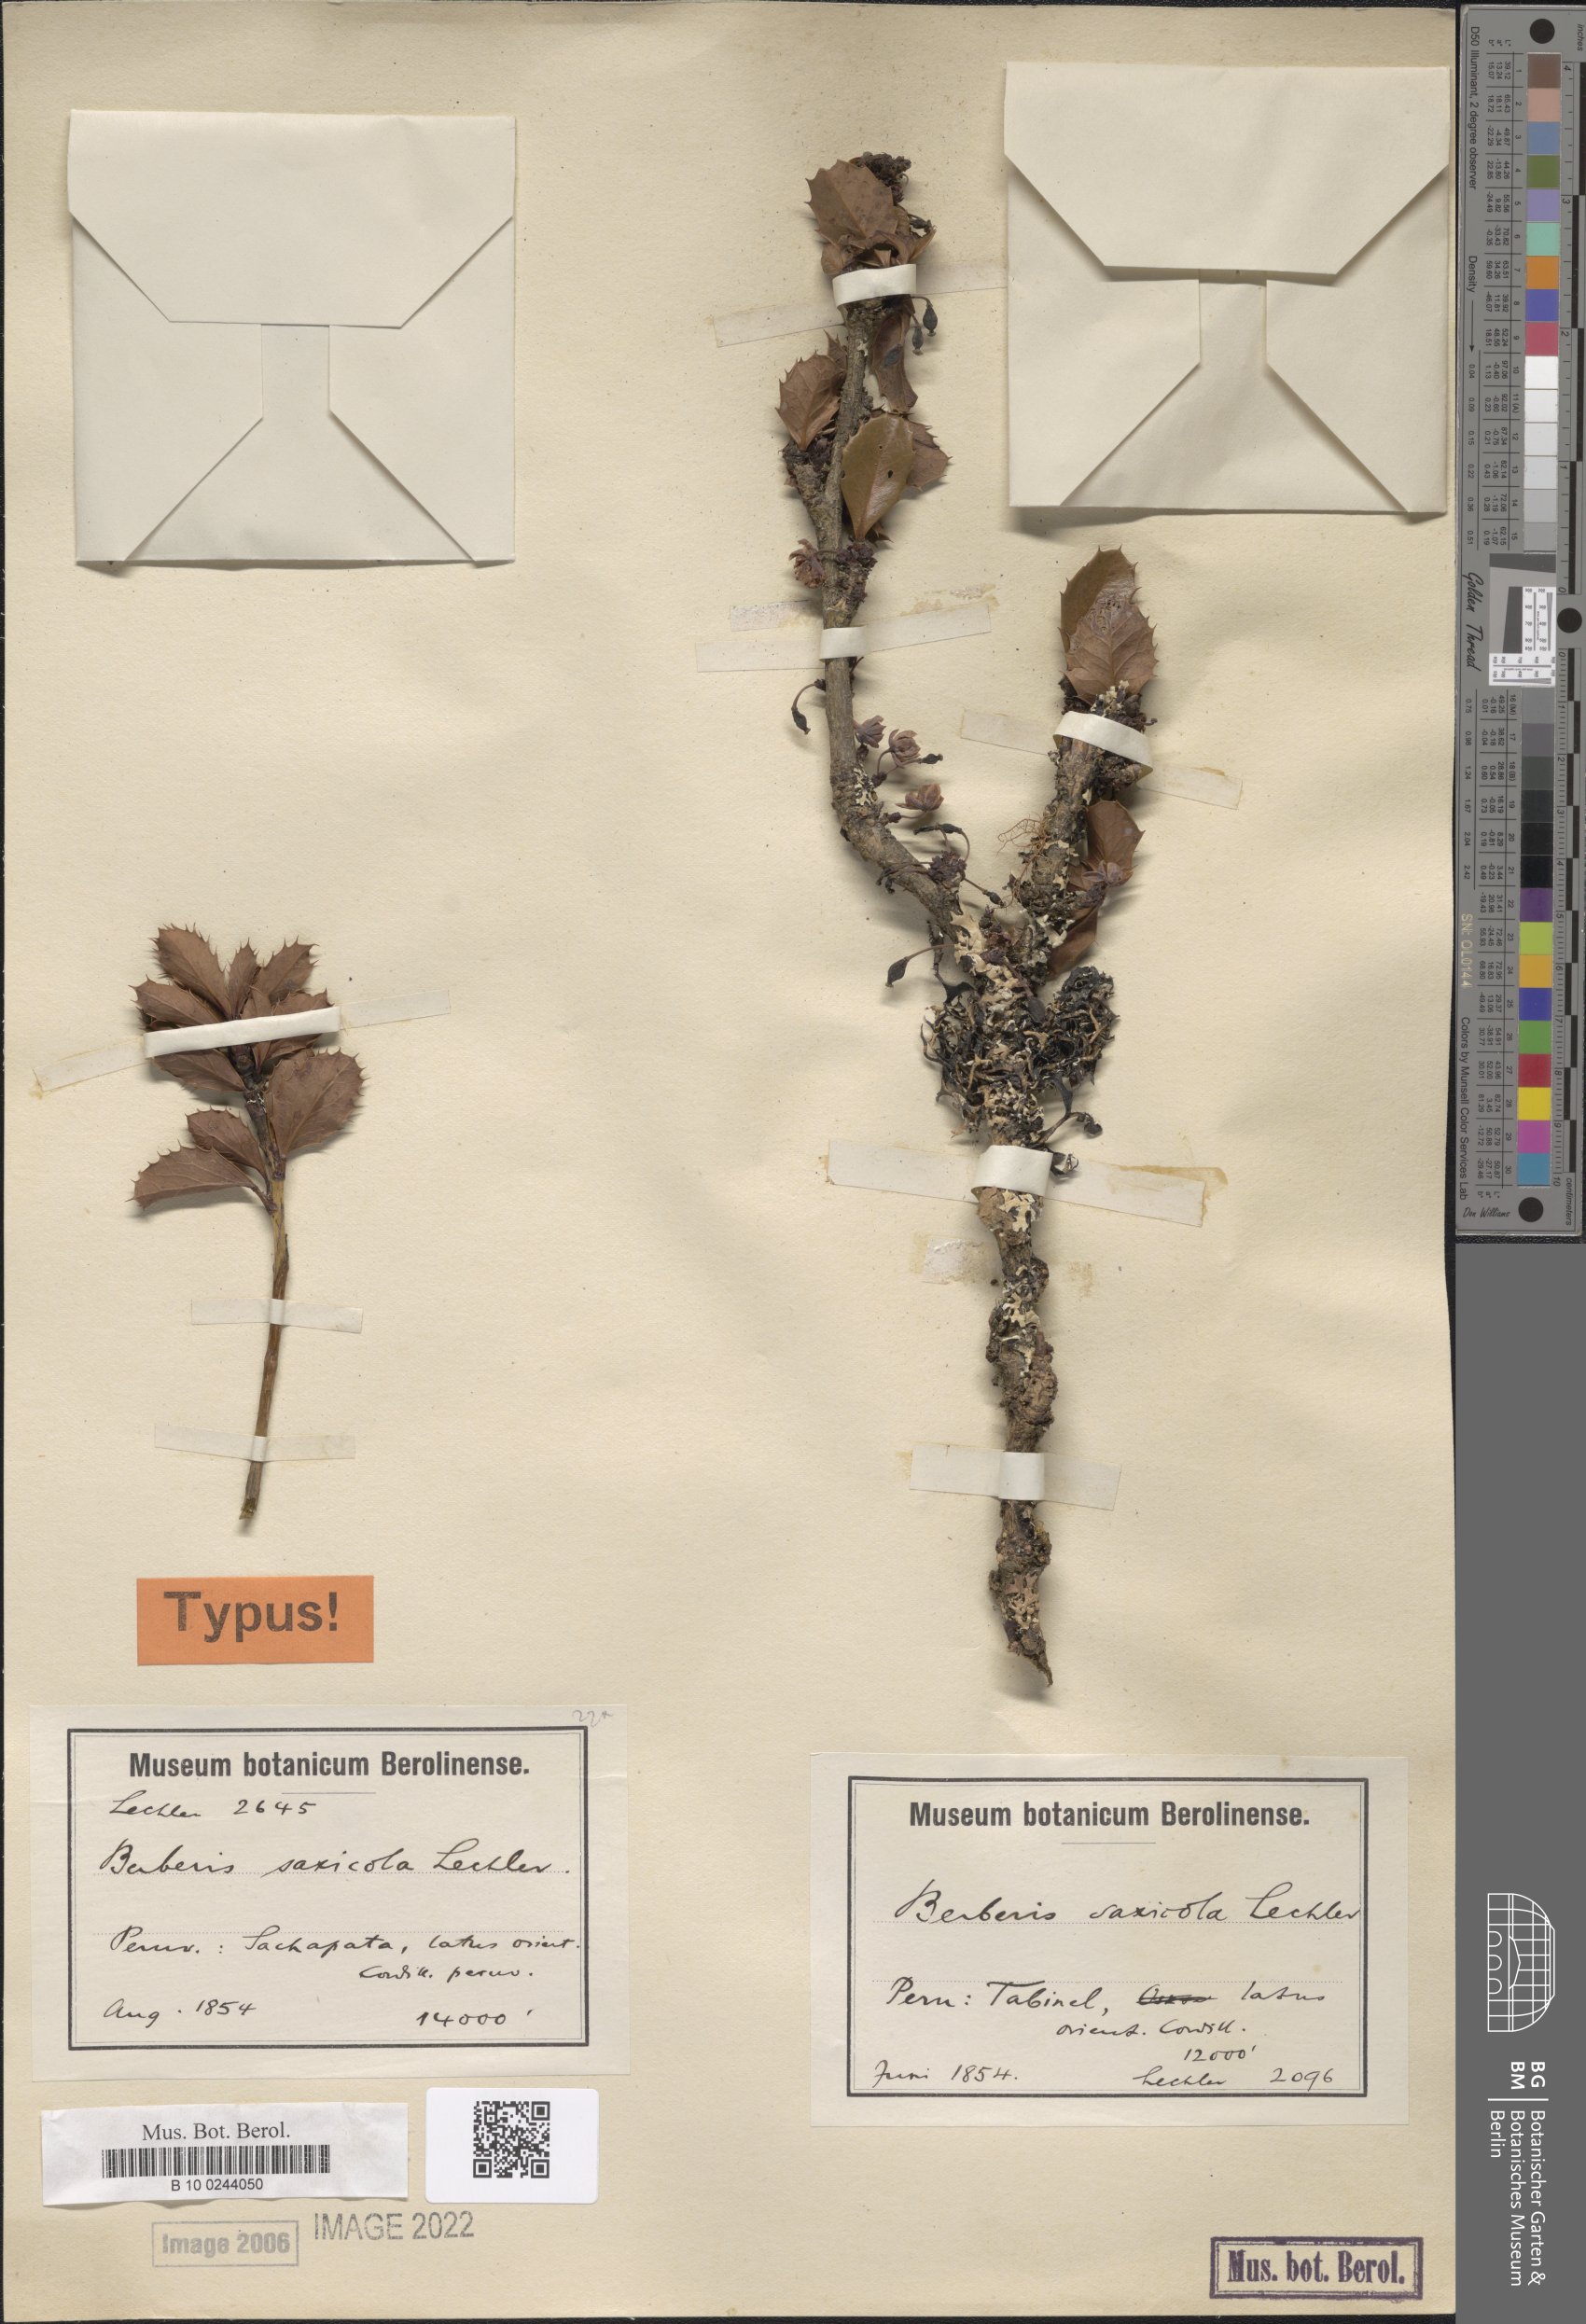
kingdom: Plantae
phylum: Tracheophyta
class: Magnoliopsida
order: Ranunculales
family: Berberidaceae
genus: Berberis
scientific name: Berberis saxicola
